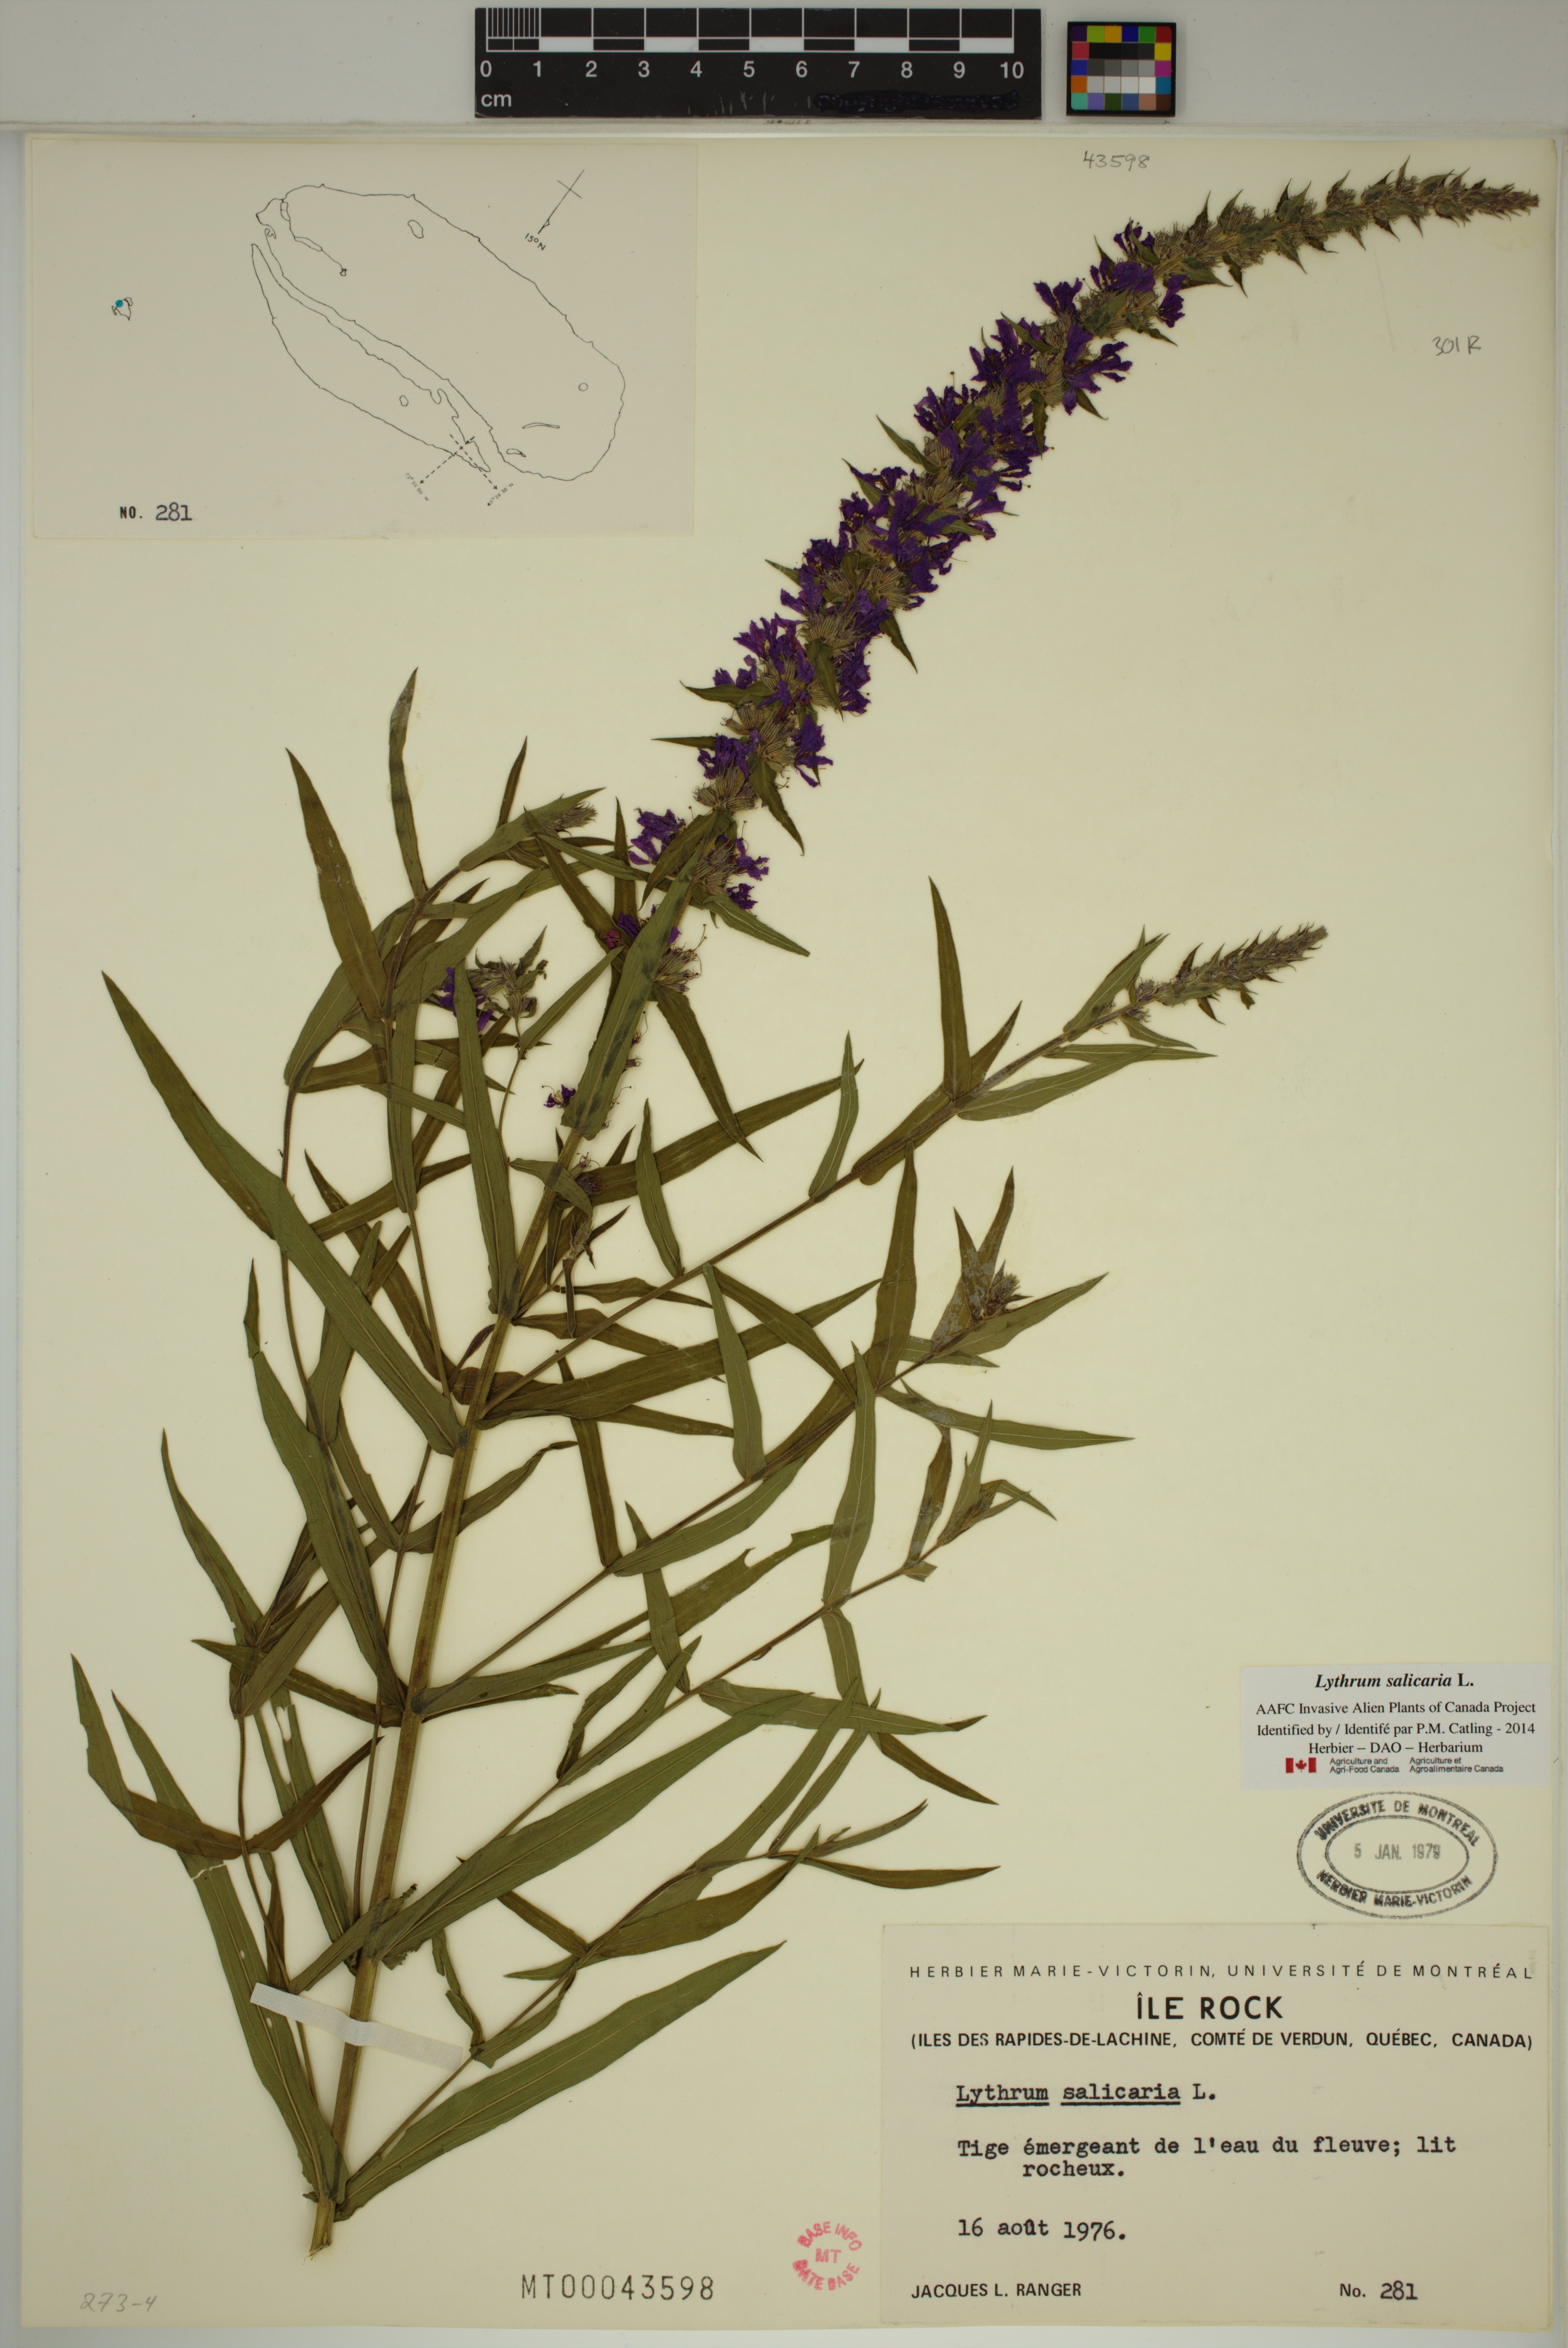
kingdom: Plantae
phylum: Tracheophyta
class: Magnoliopsida
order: Myrtales
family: Lythraceae
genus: Lythrum
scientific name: Lythrum salicaria
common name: Purple loosestrife
